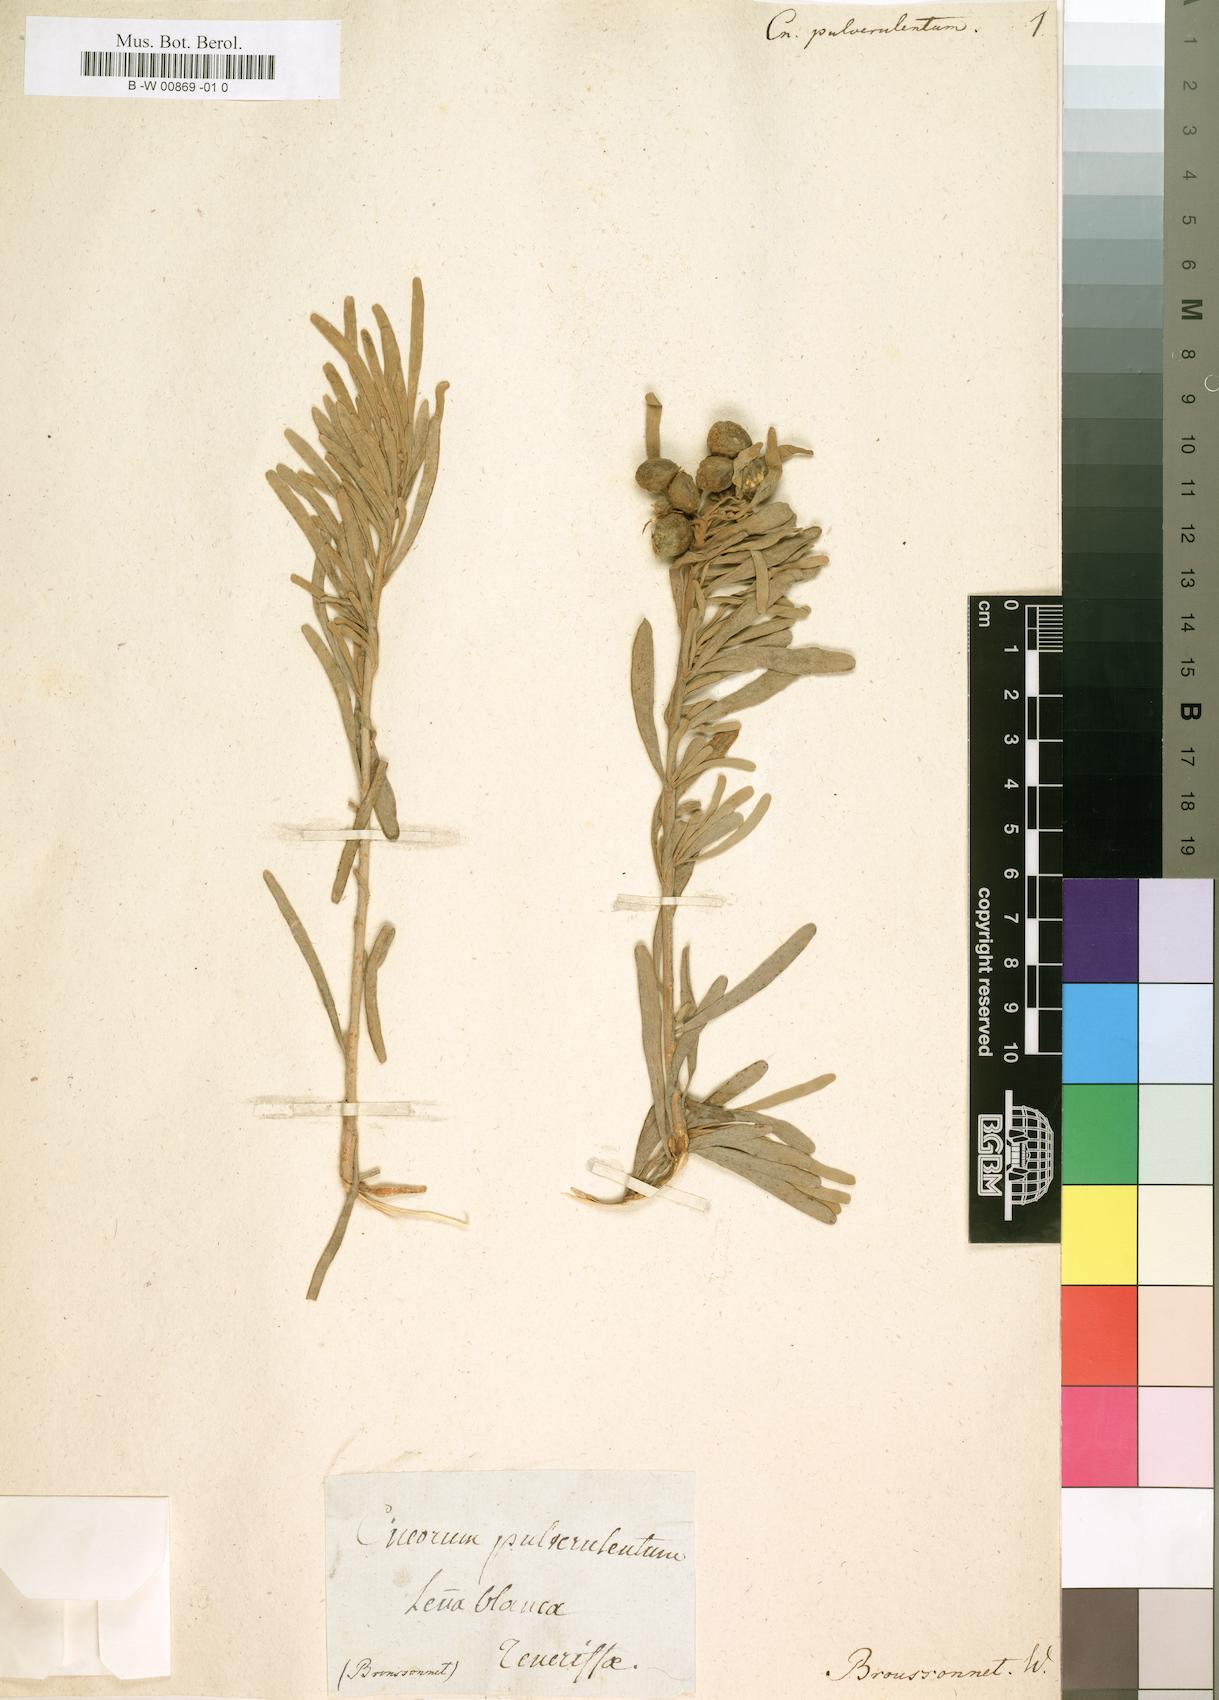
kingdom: Plantae
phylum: Tracheophyta
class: Magnoliopsida
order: Sapindales
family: Rutaceae
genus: Cneorum
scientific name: Cneorum pulverulentum
